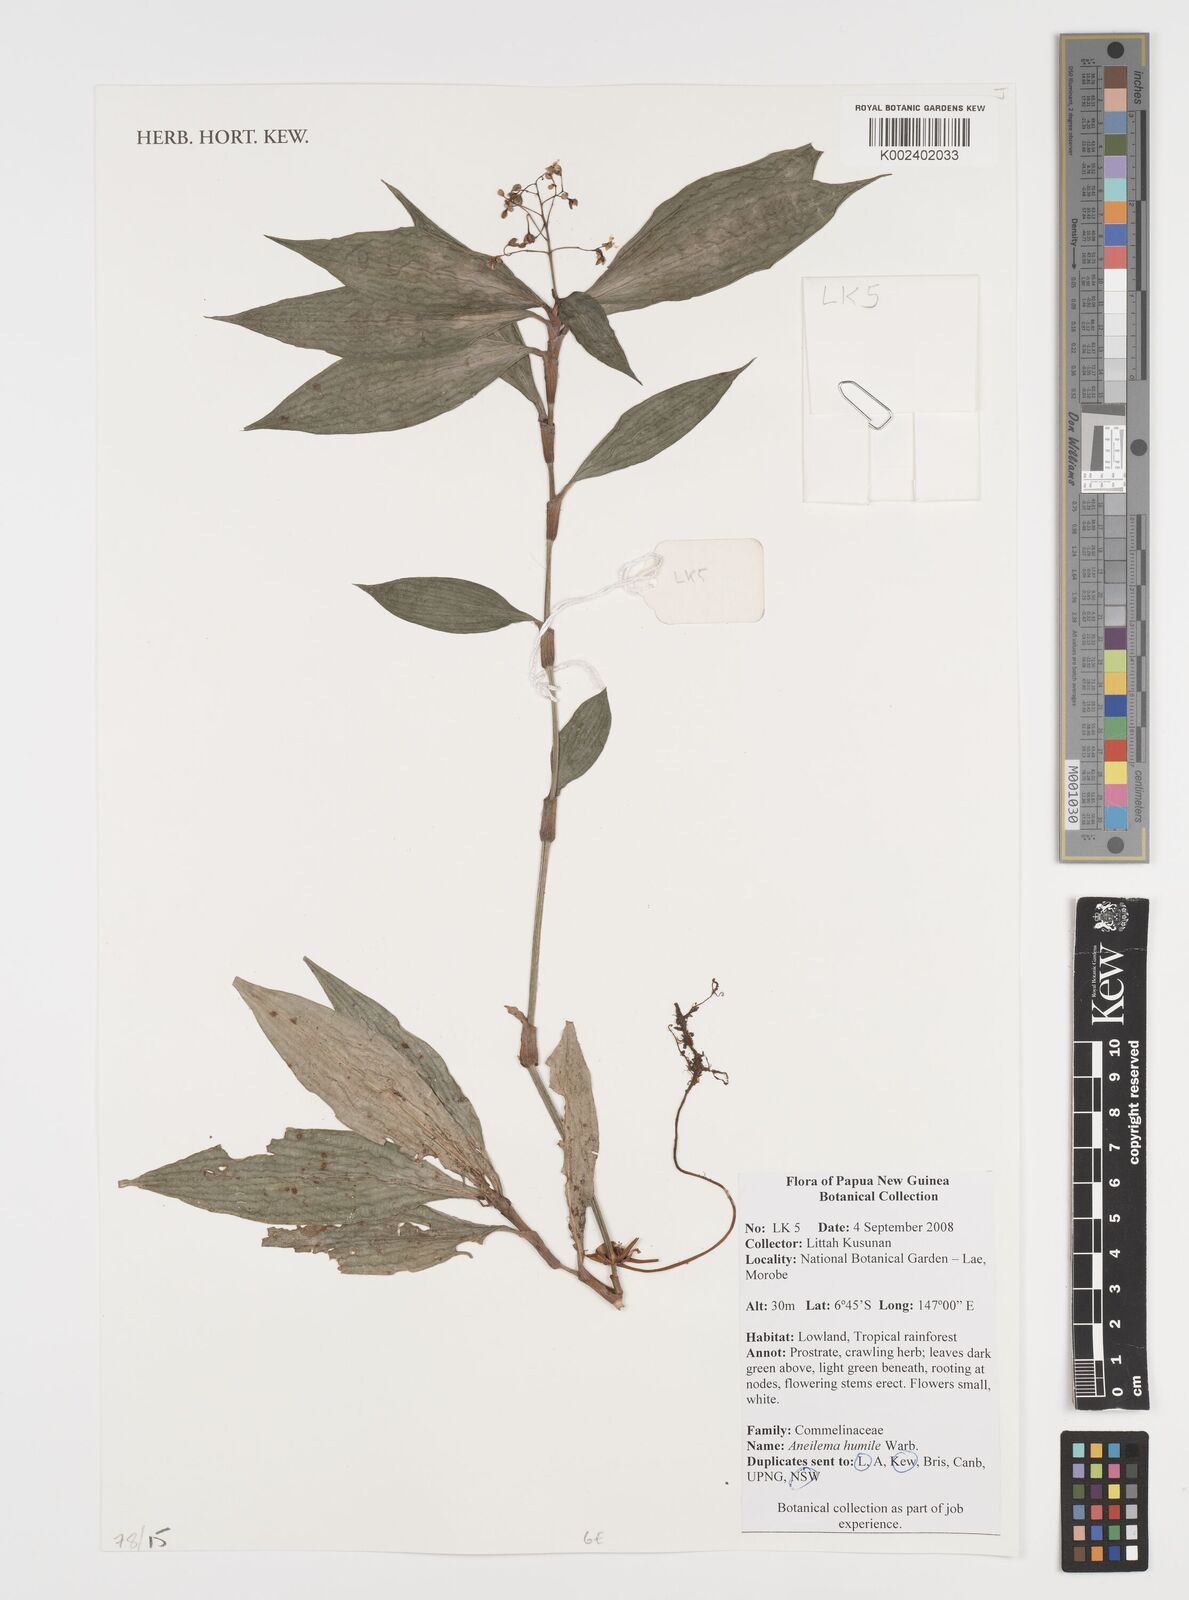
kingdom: Plantae
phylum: Tracheophyta
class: Liliopsida
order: Commelinales
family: Commelinaceae
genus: Dictyospermum
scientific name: Dictyospermum humile
